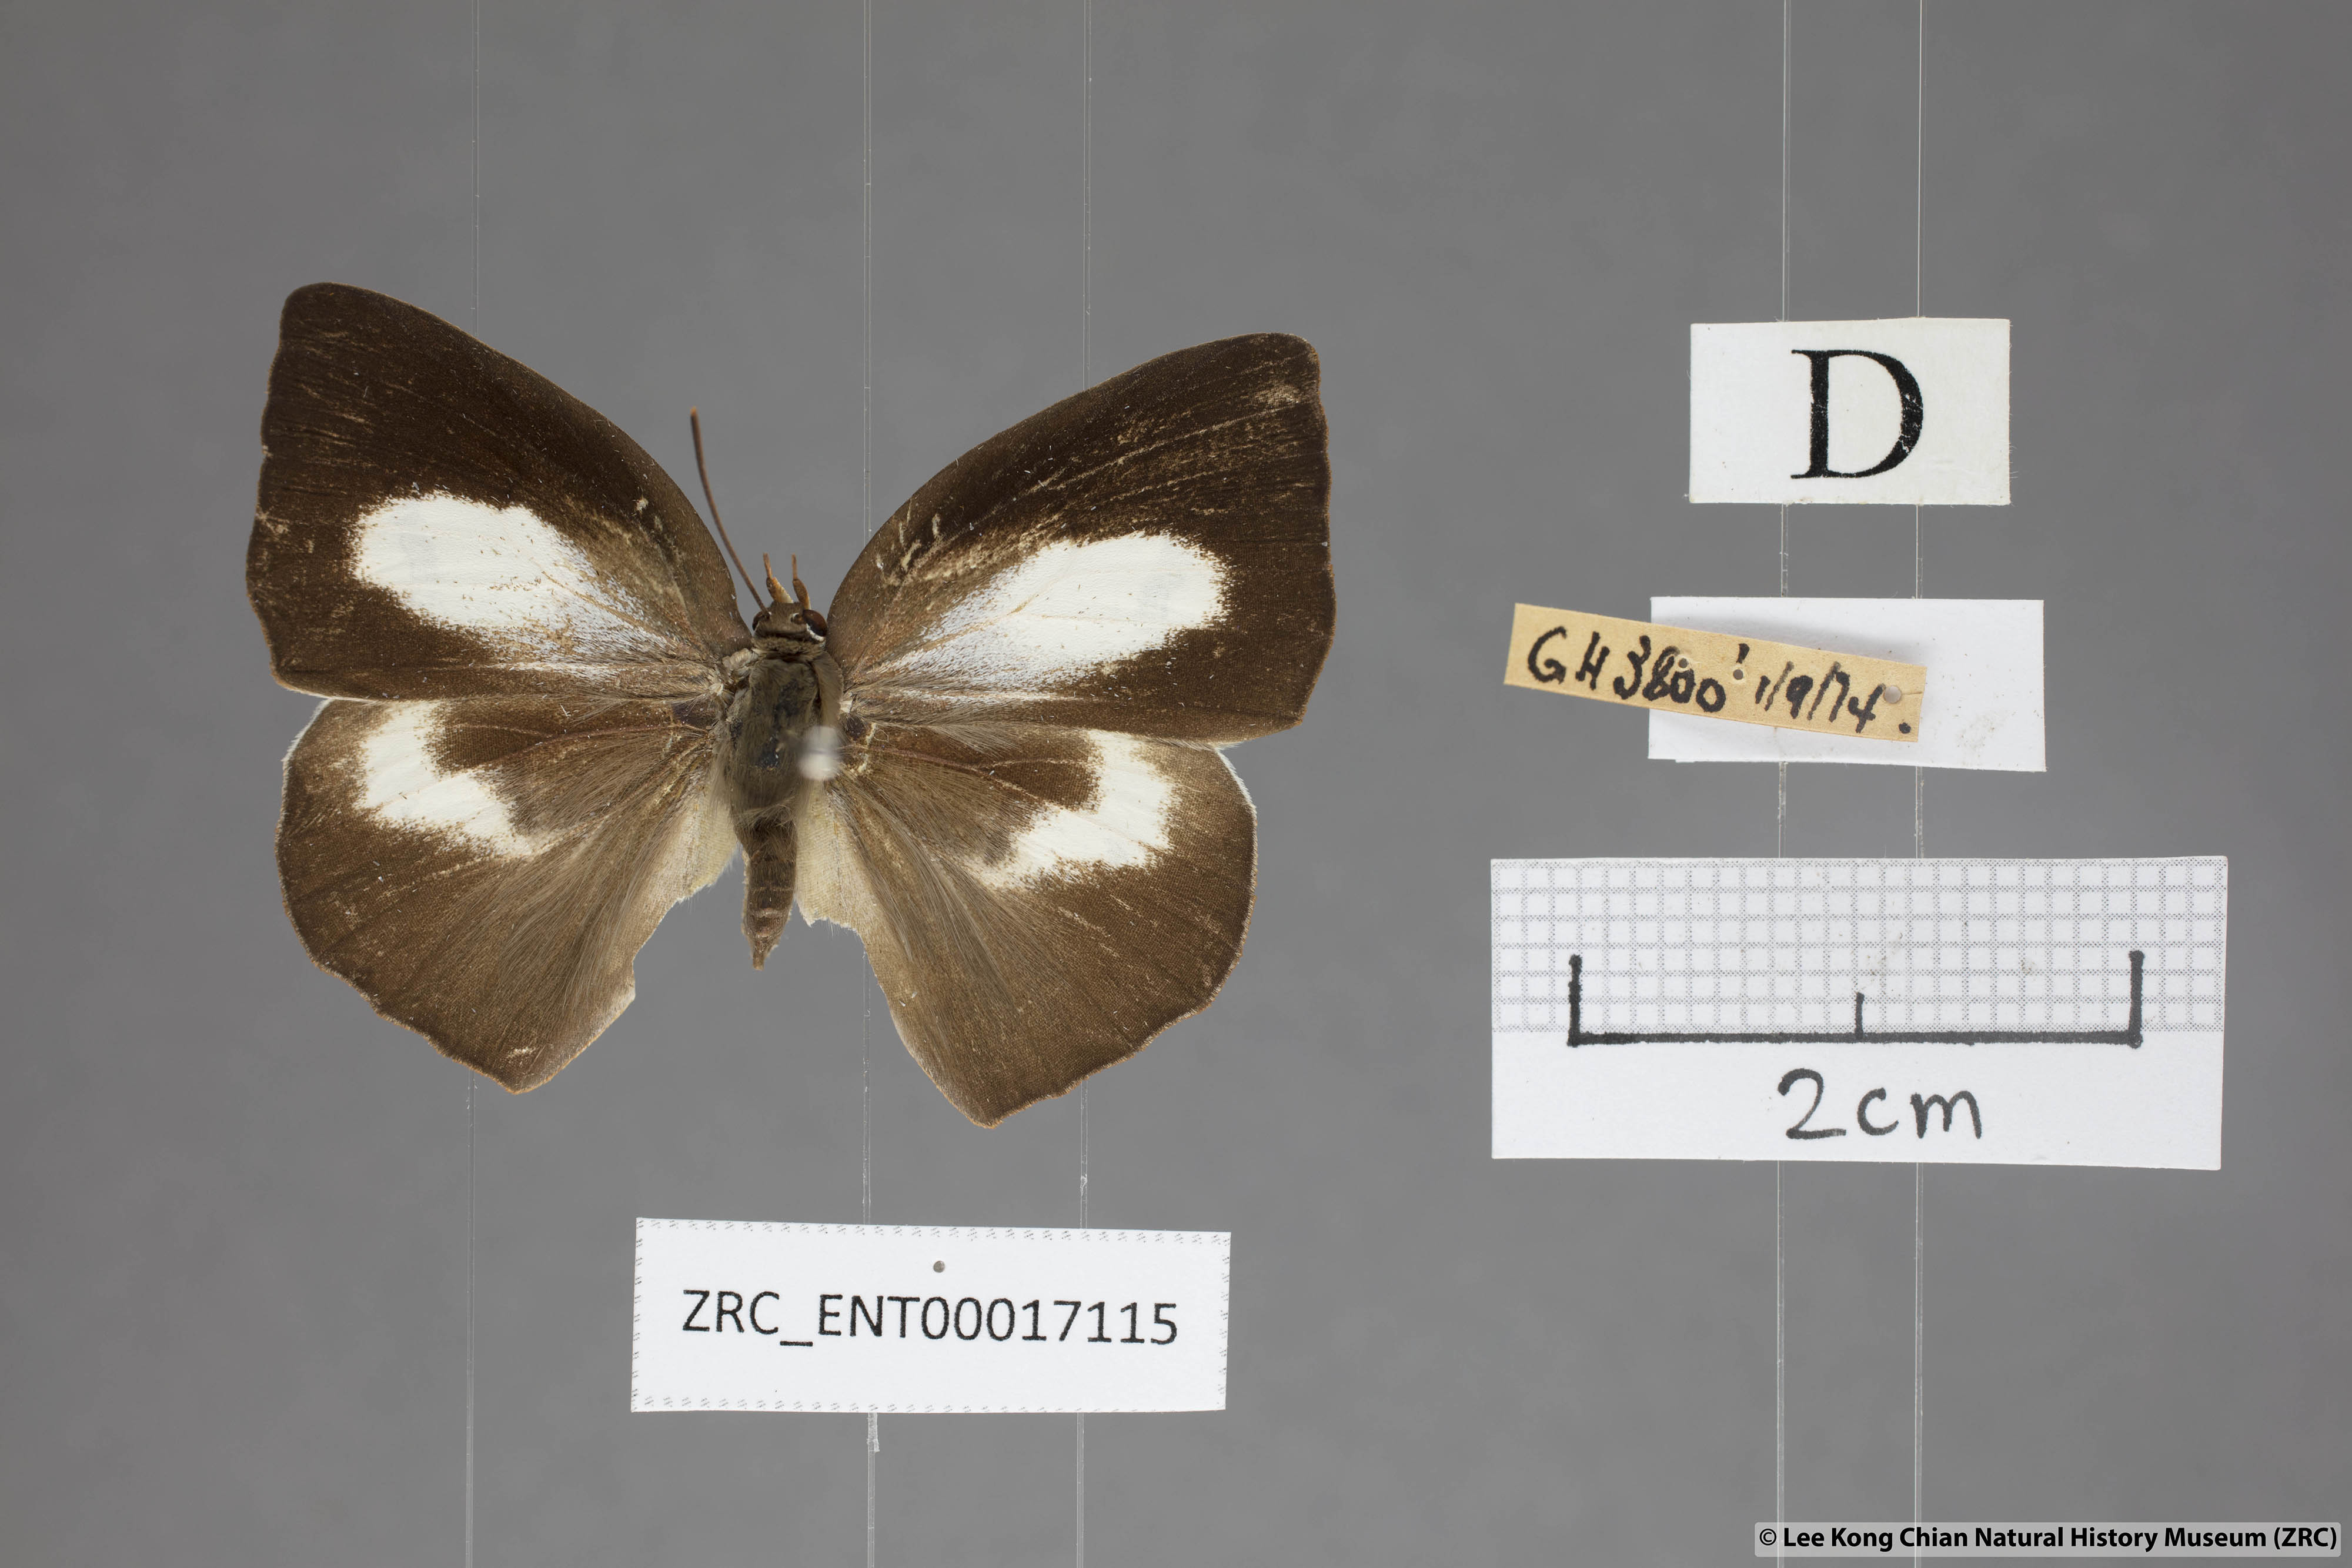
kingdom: Animalia
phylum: Arthropoda
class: Insecta
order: Lepidoptera
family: Lycaenidae
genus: Curetis
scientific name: Curetis bulis
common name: Bright sunbeam
